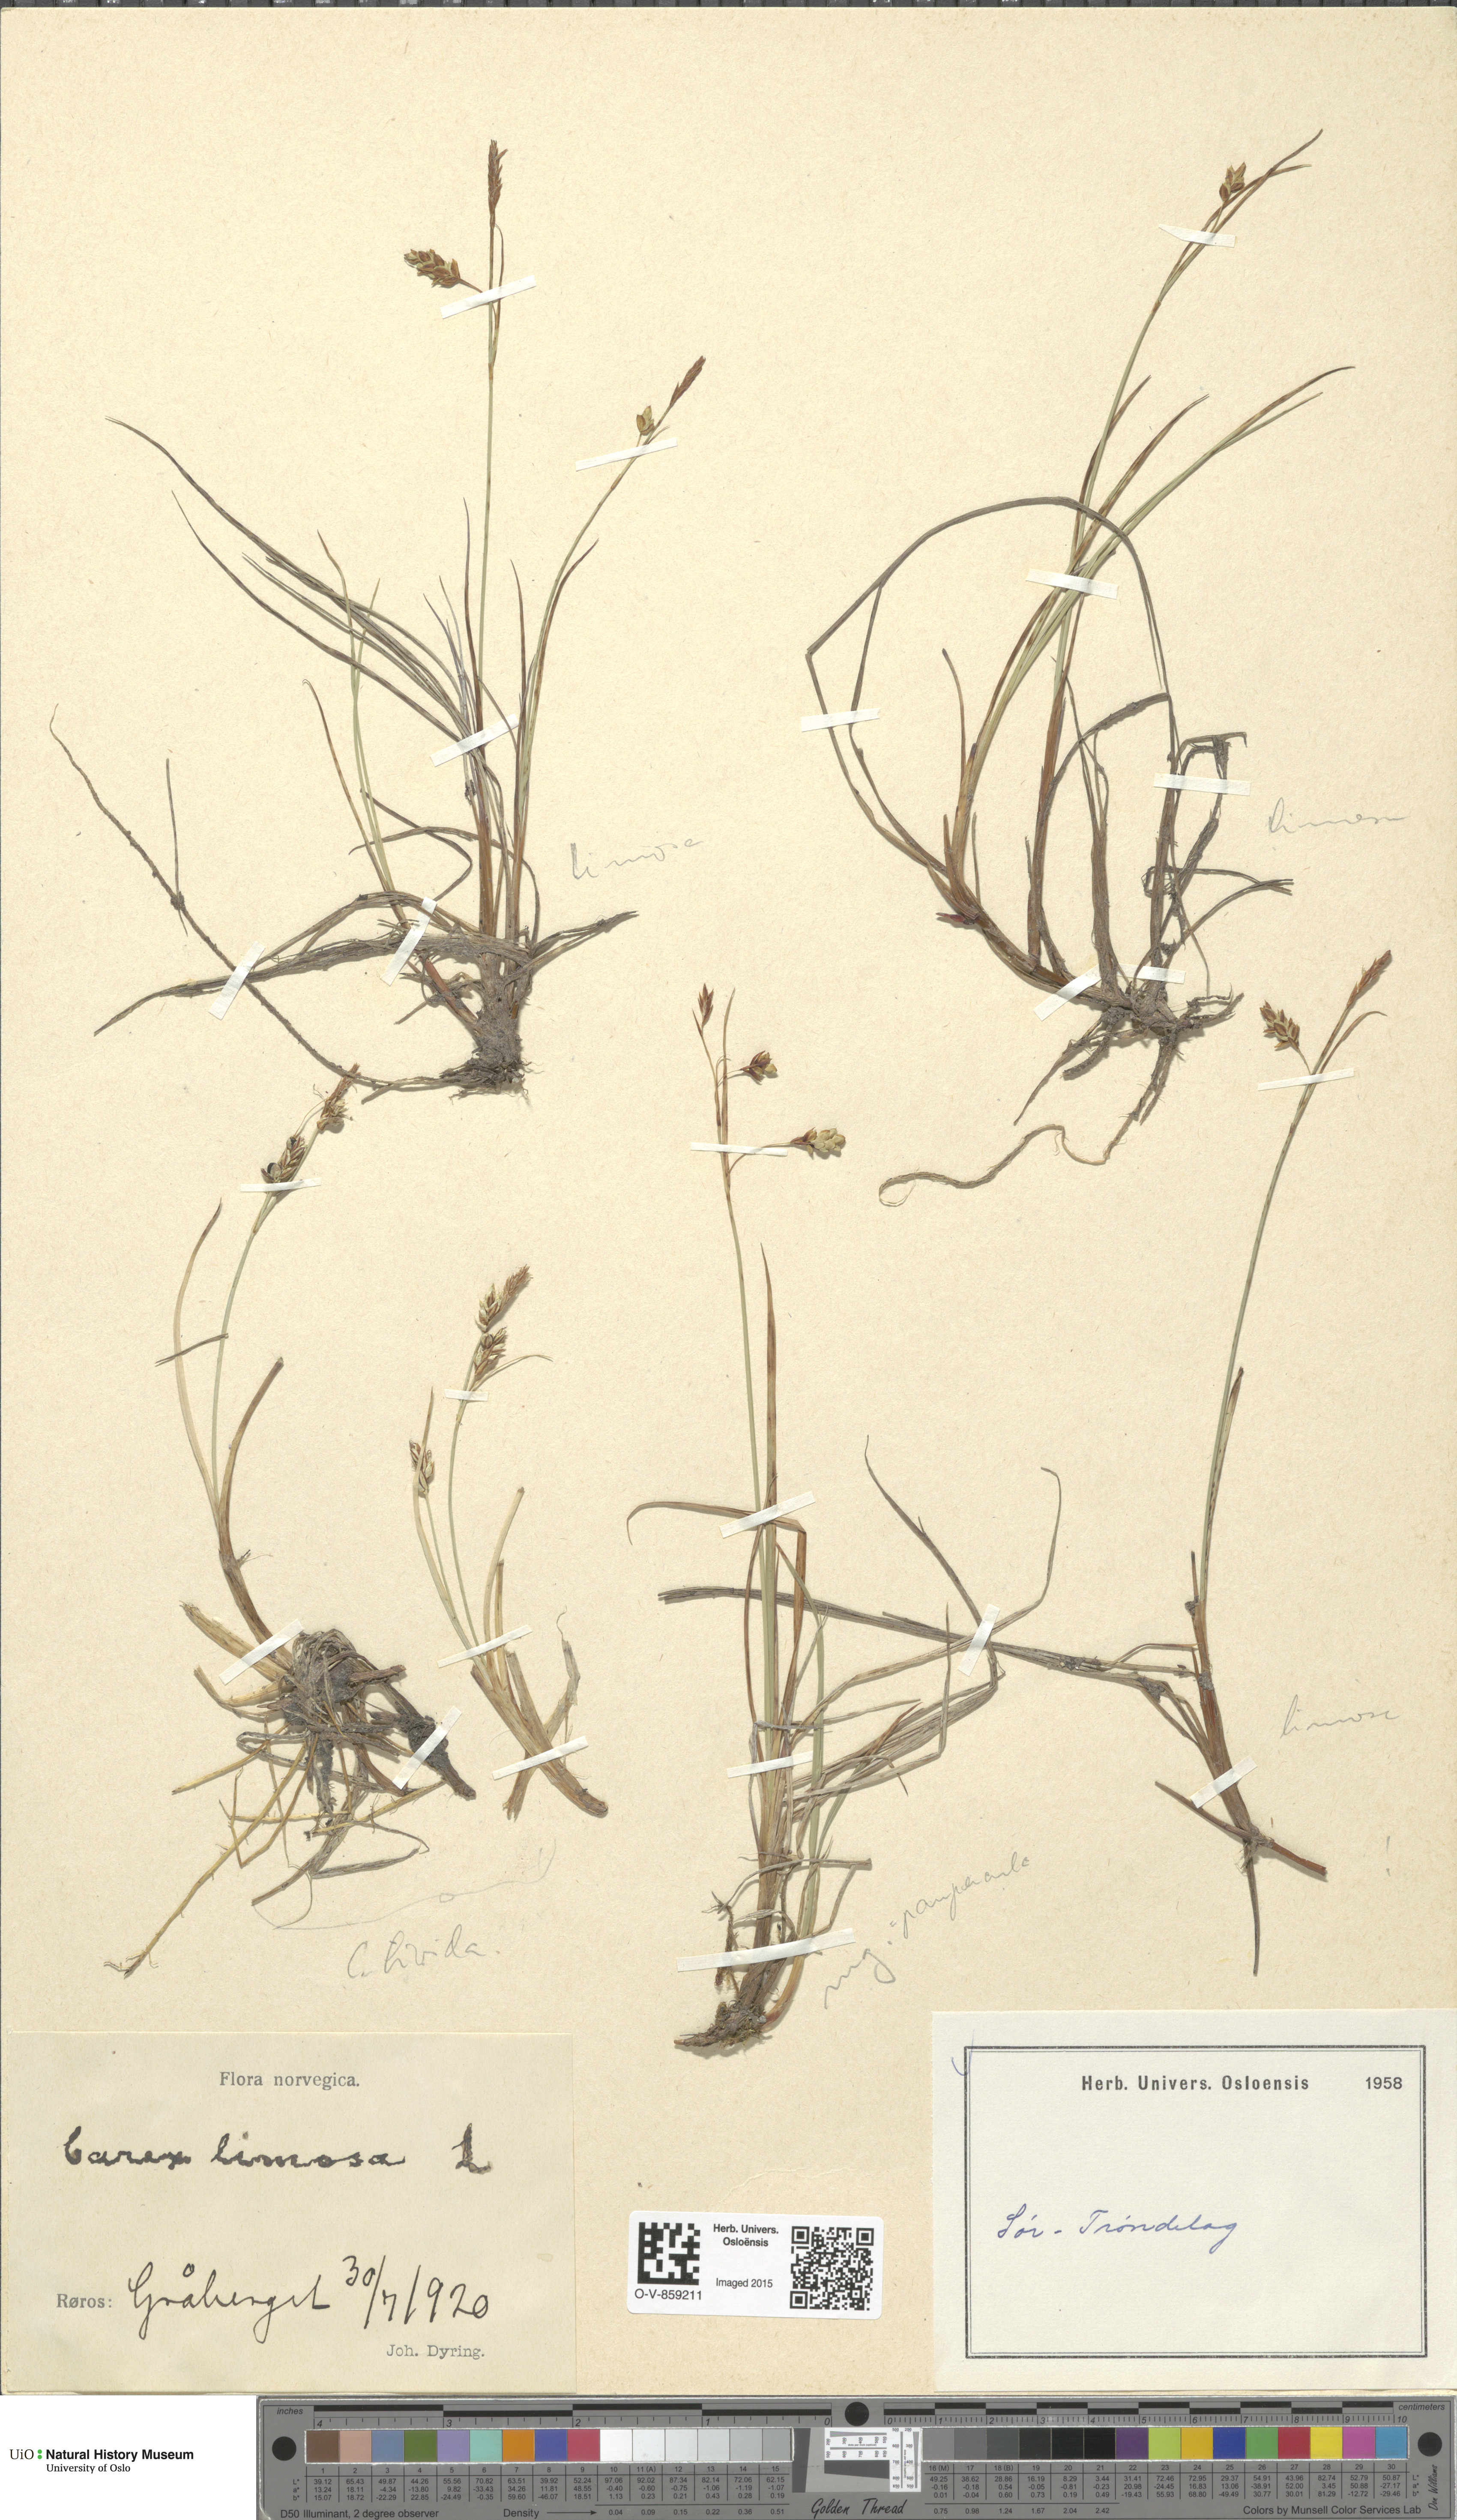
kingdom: Plantae
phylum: Tracheophyta
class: Liliopsida
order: Poales
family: Cyperaceae
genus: Carex
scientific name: Carex limosa
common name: Bog sedge
